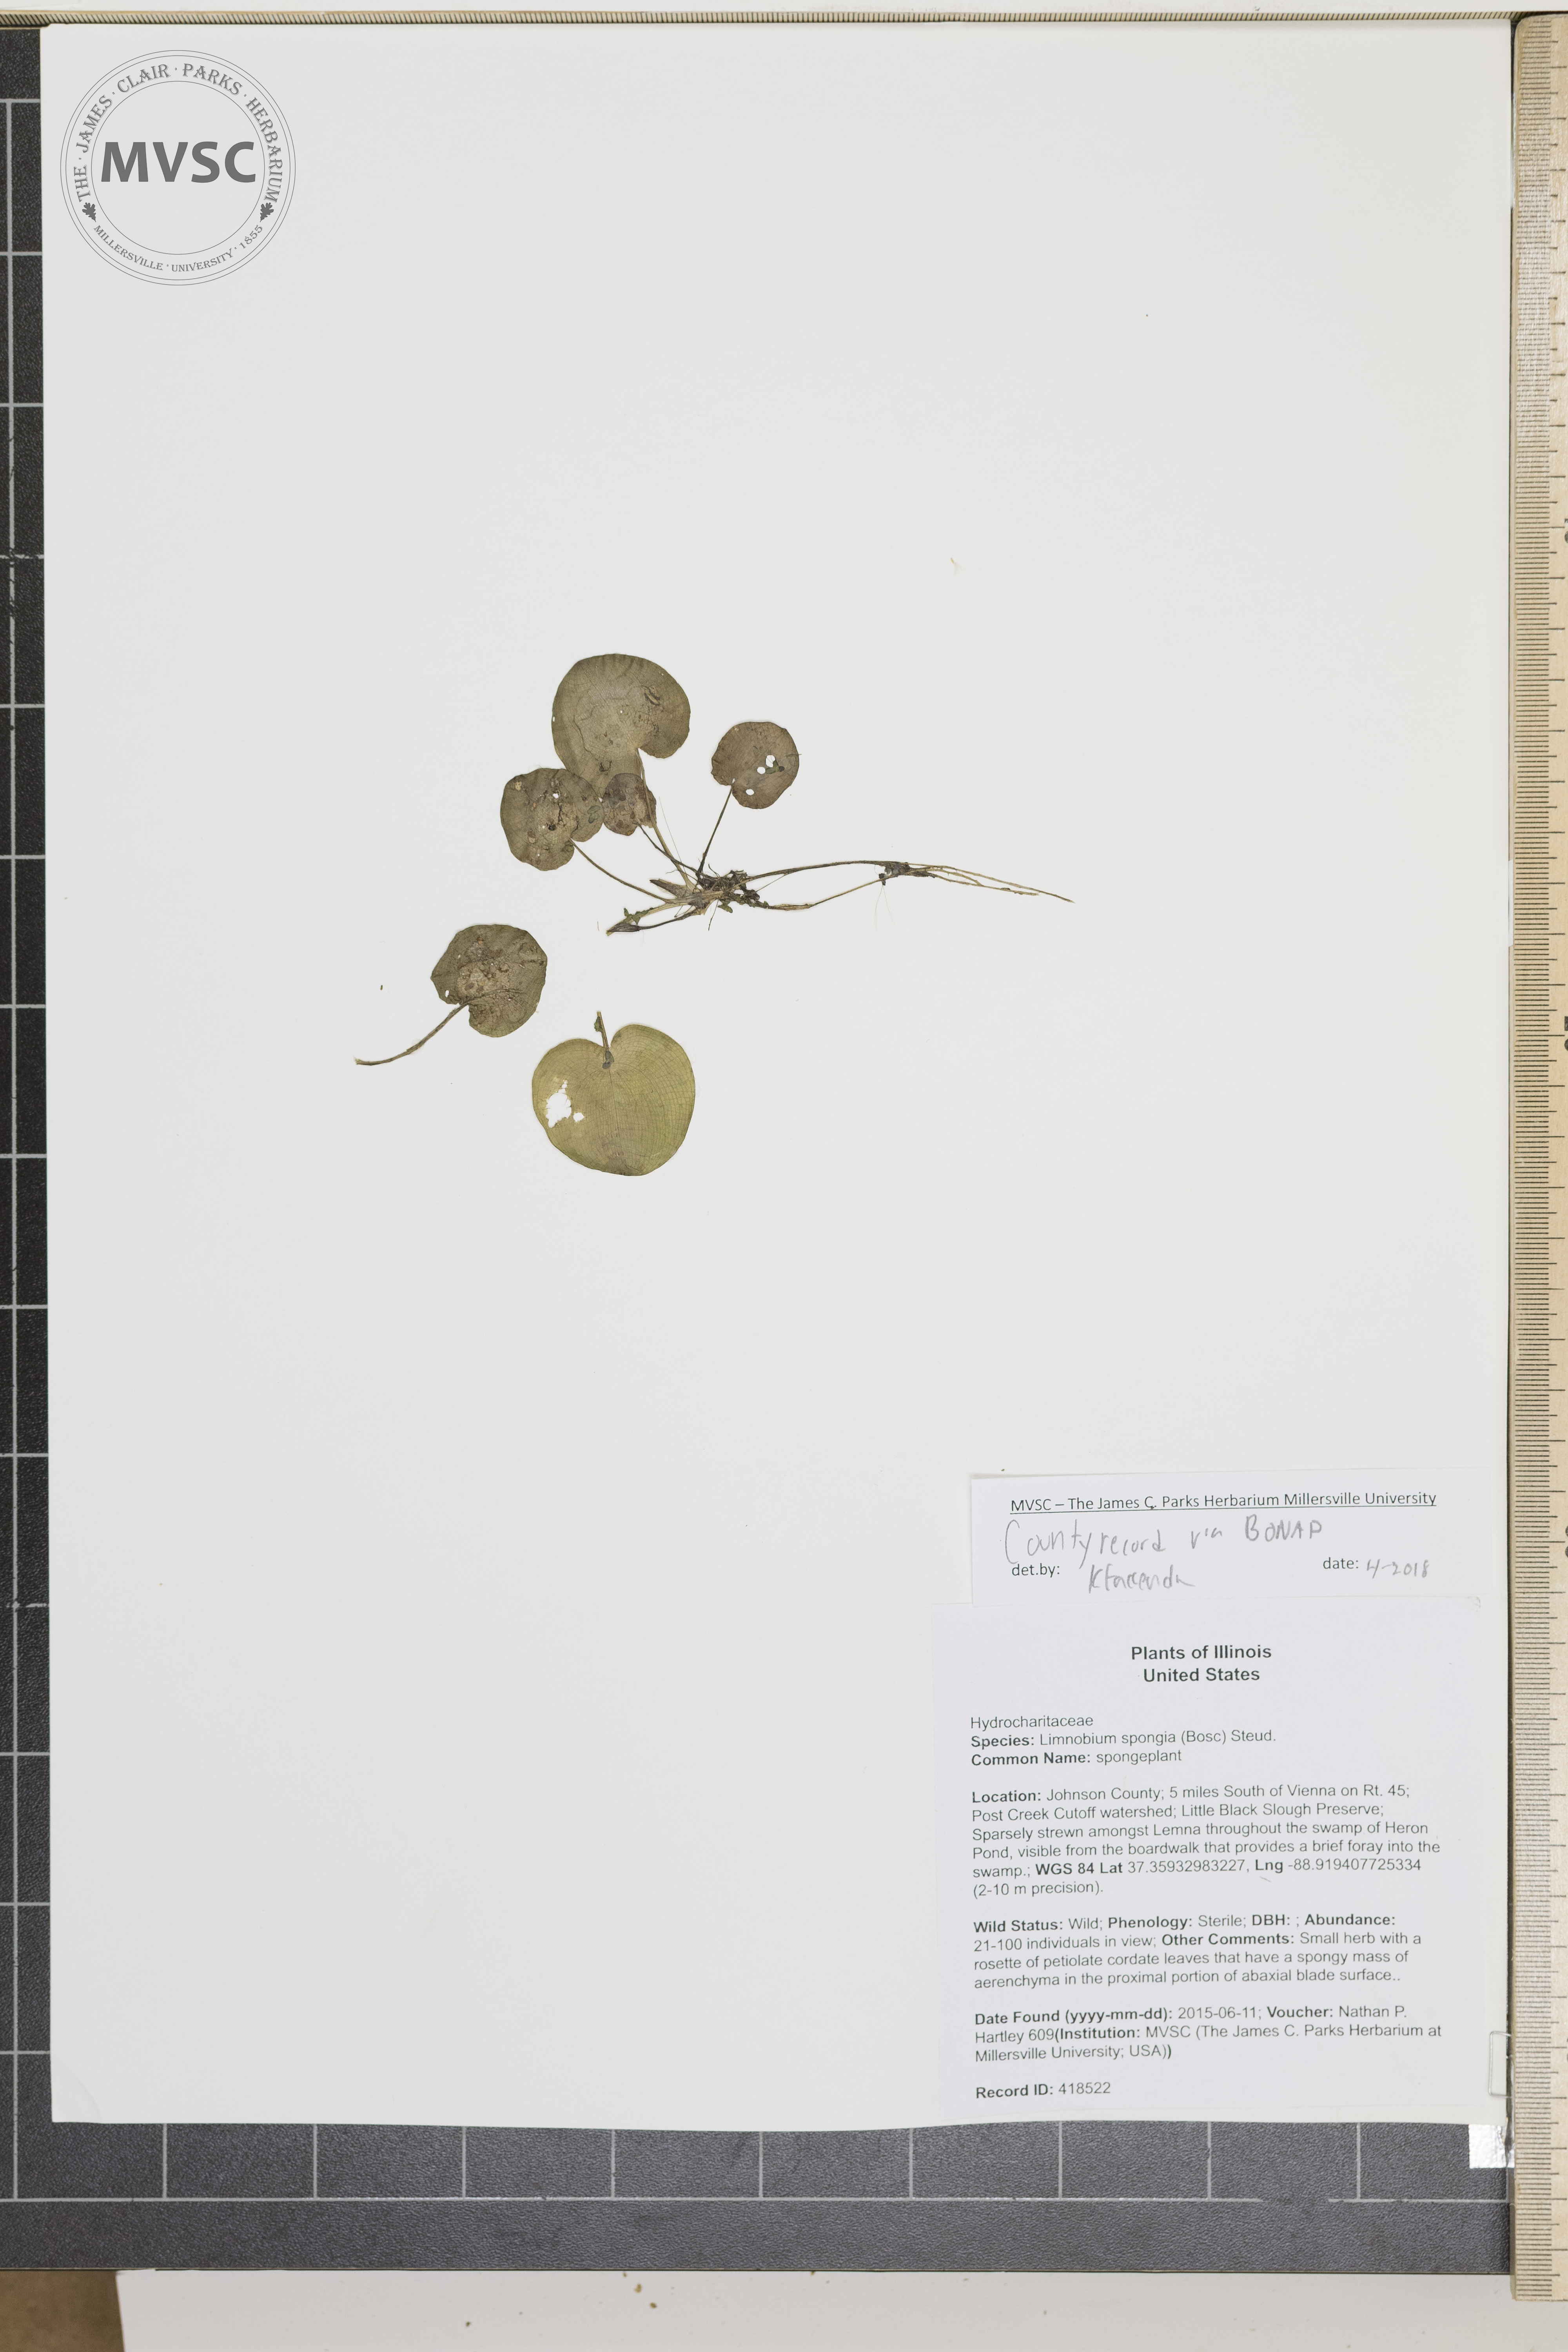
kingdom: Plantae
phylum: Tracheophyta
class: Liliopsida
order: Alismatales
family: Hydrocharitaceae
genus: Hydrocharis
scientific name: Hydrocharis spongia
